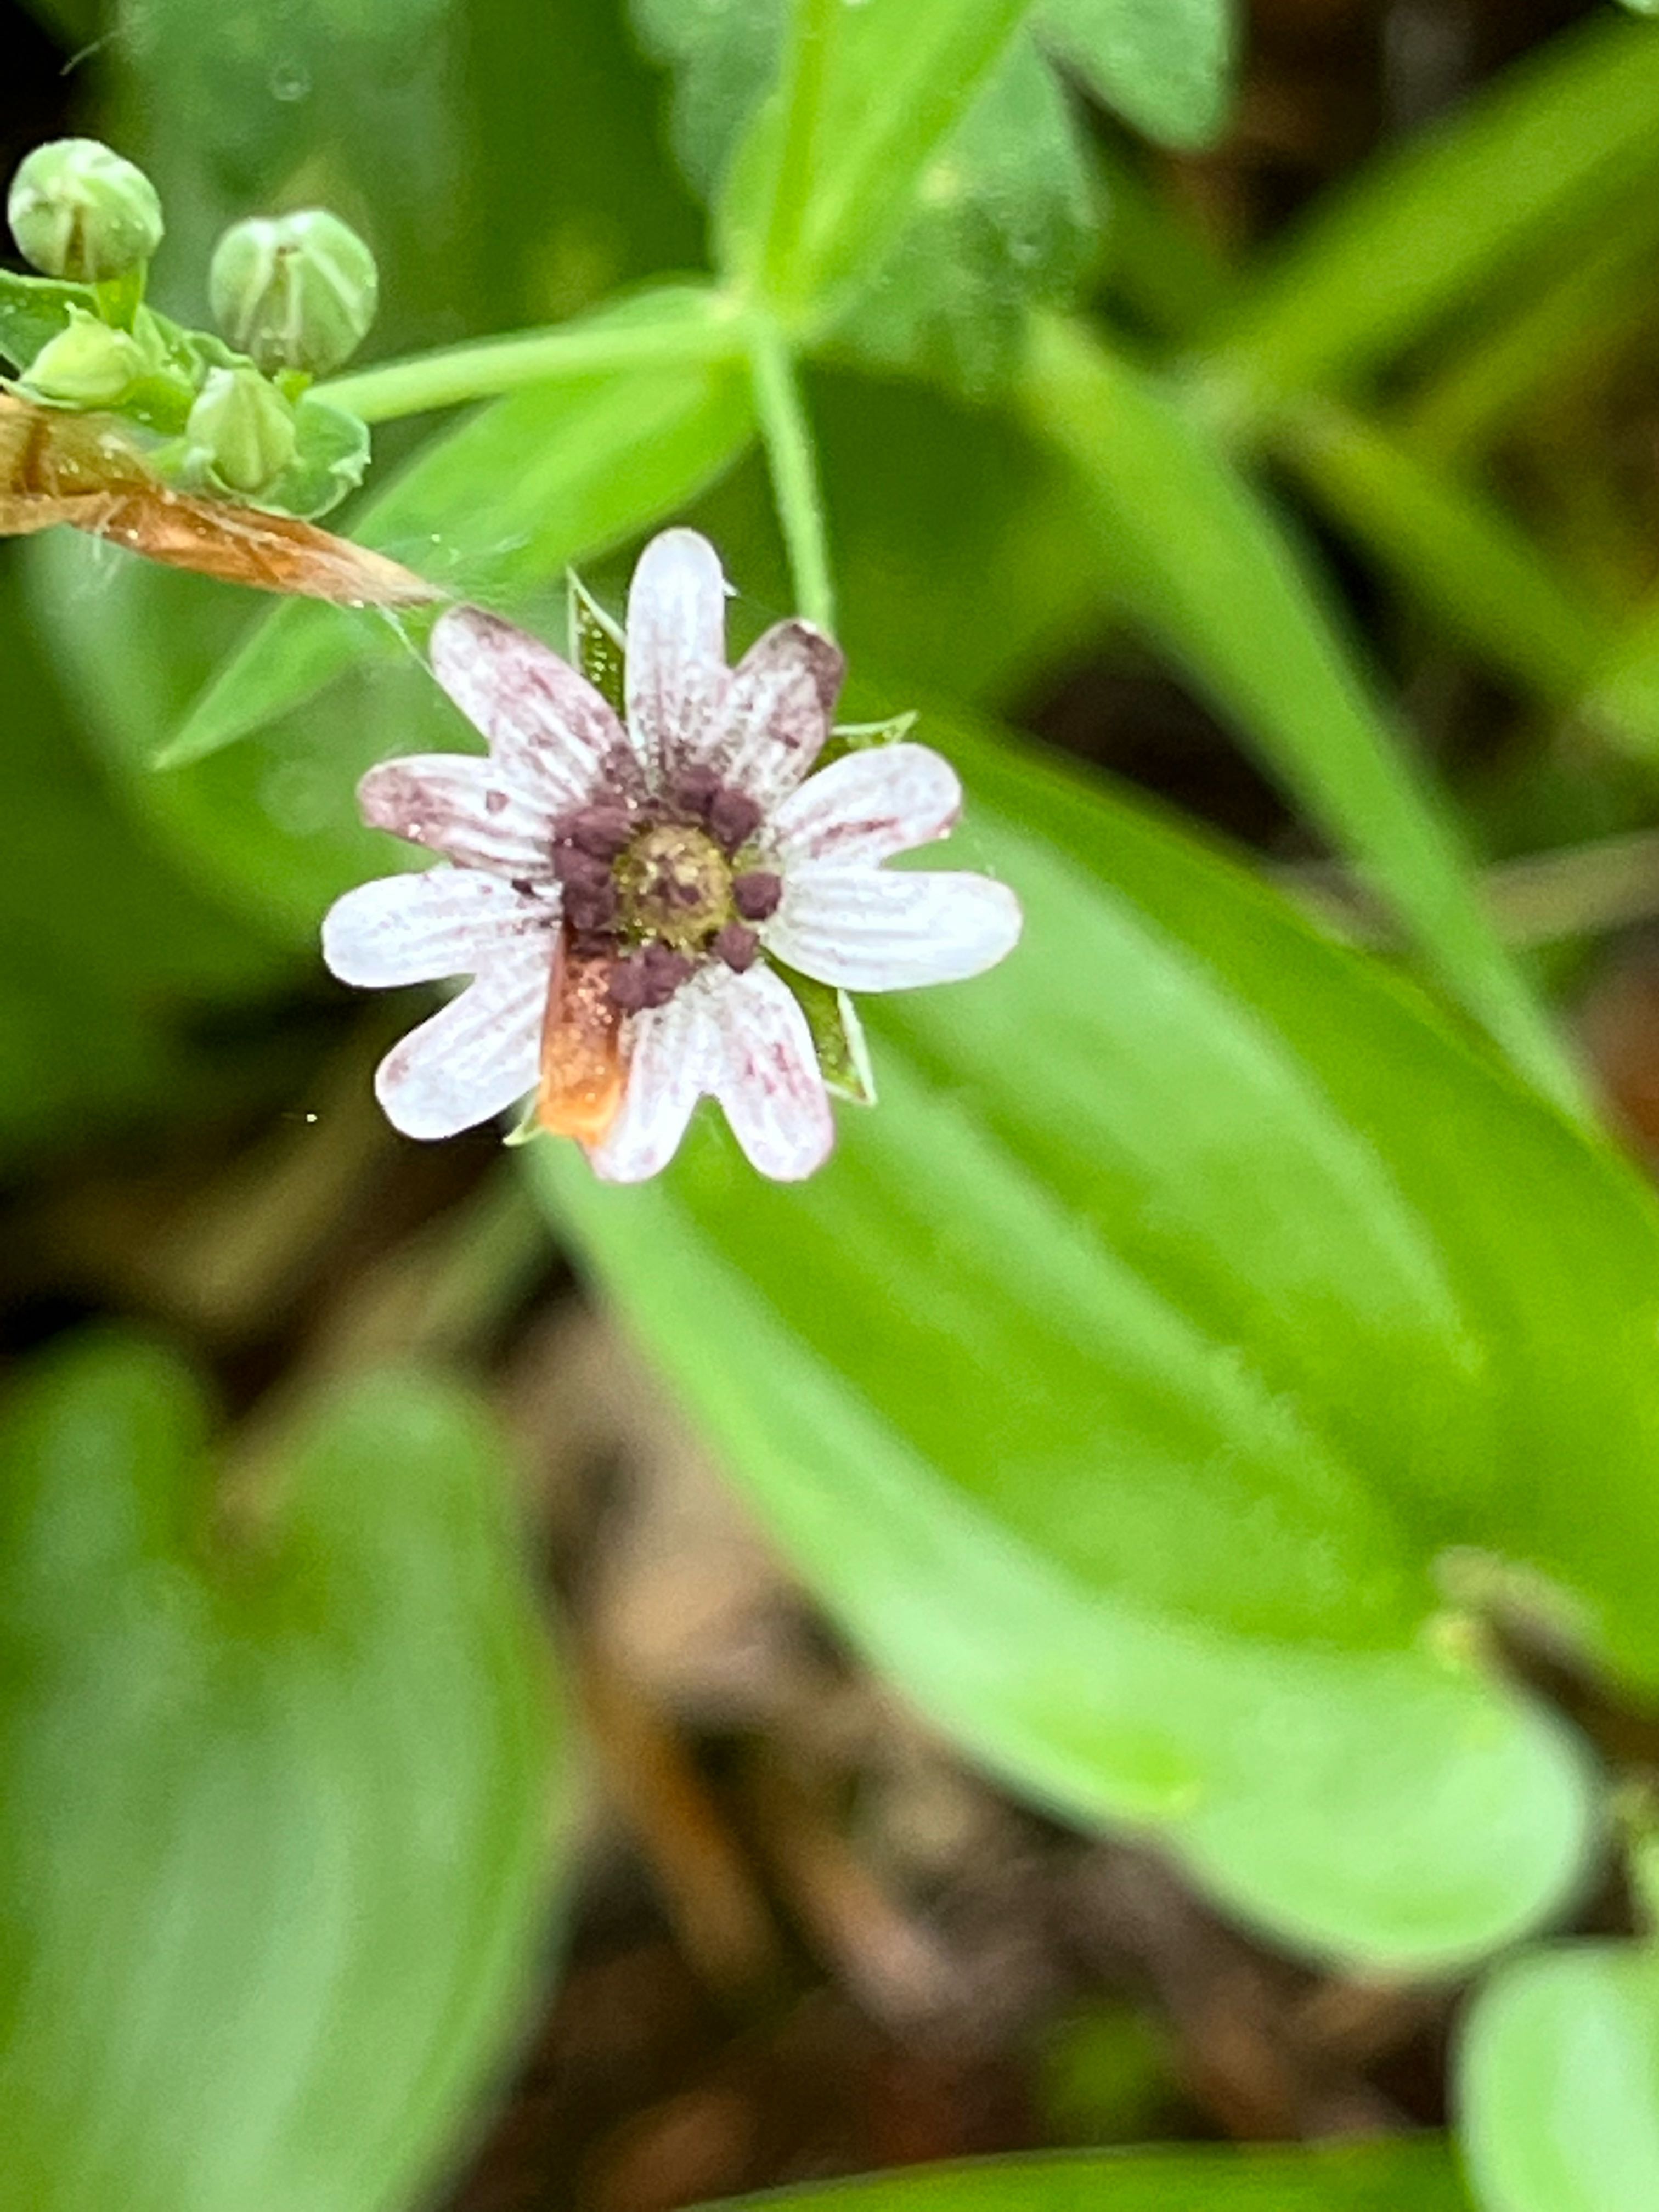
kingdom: Fungi
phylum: Basidiomycota
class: Microbotryomycetes
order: Microbotryales
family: Microbotryaceae
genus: Microbotryum
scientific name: Microbotryum stellariae
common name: fladstjerne-støvbladrust
